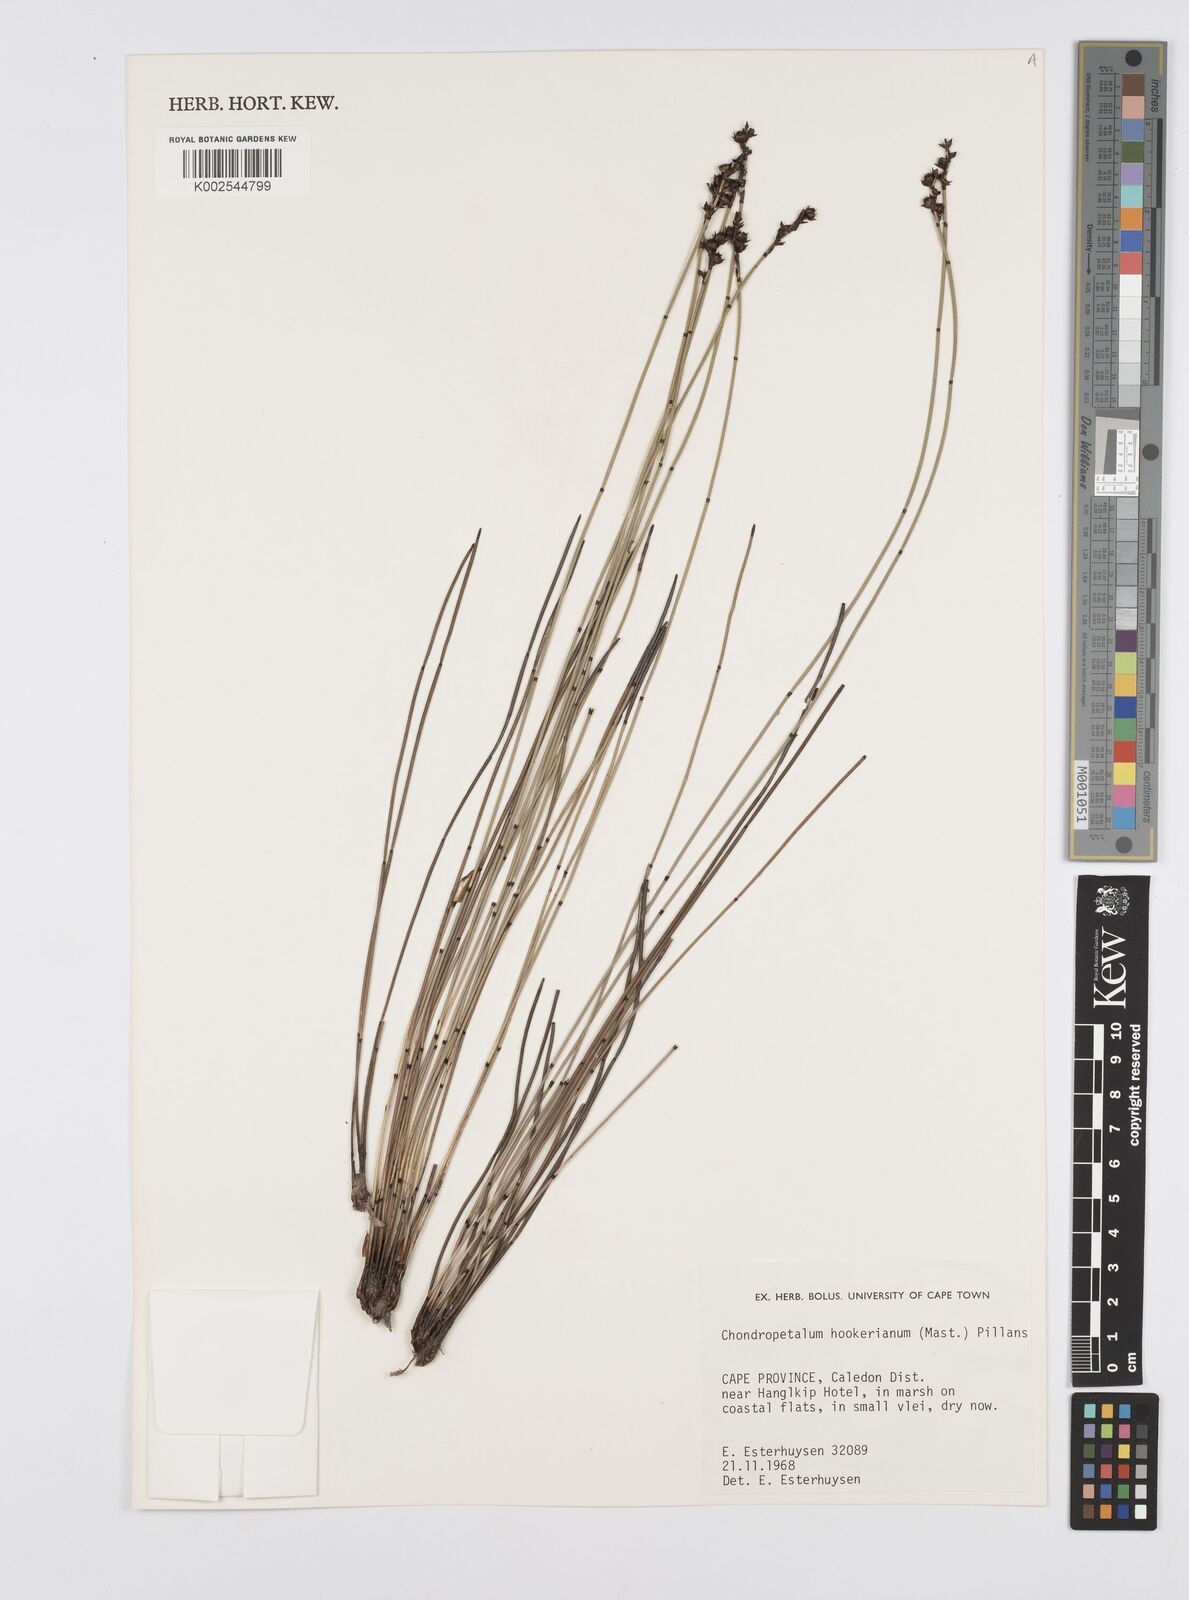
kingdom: Plantae
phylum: Tracheophyta
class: Liliopsida
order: Poales
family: Restionaceae
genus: Elegia
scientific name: Elegia hookeriana
